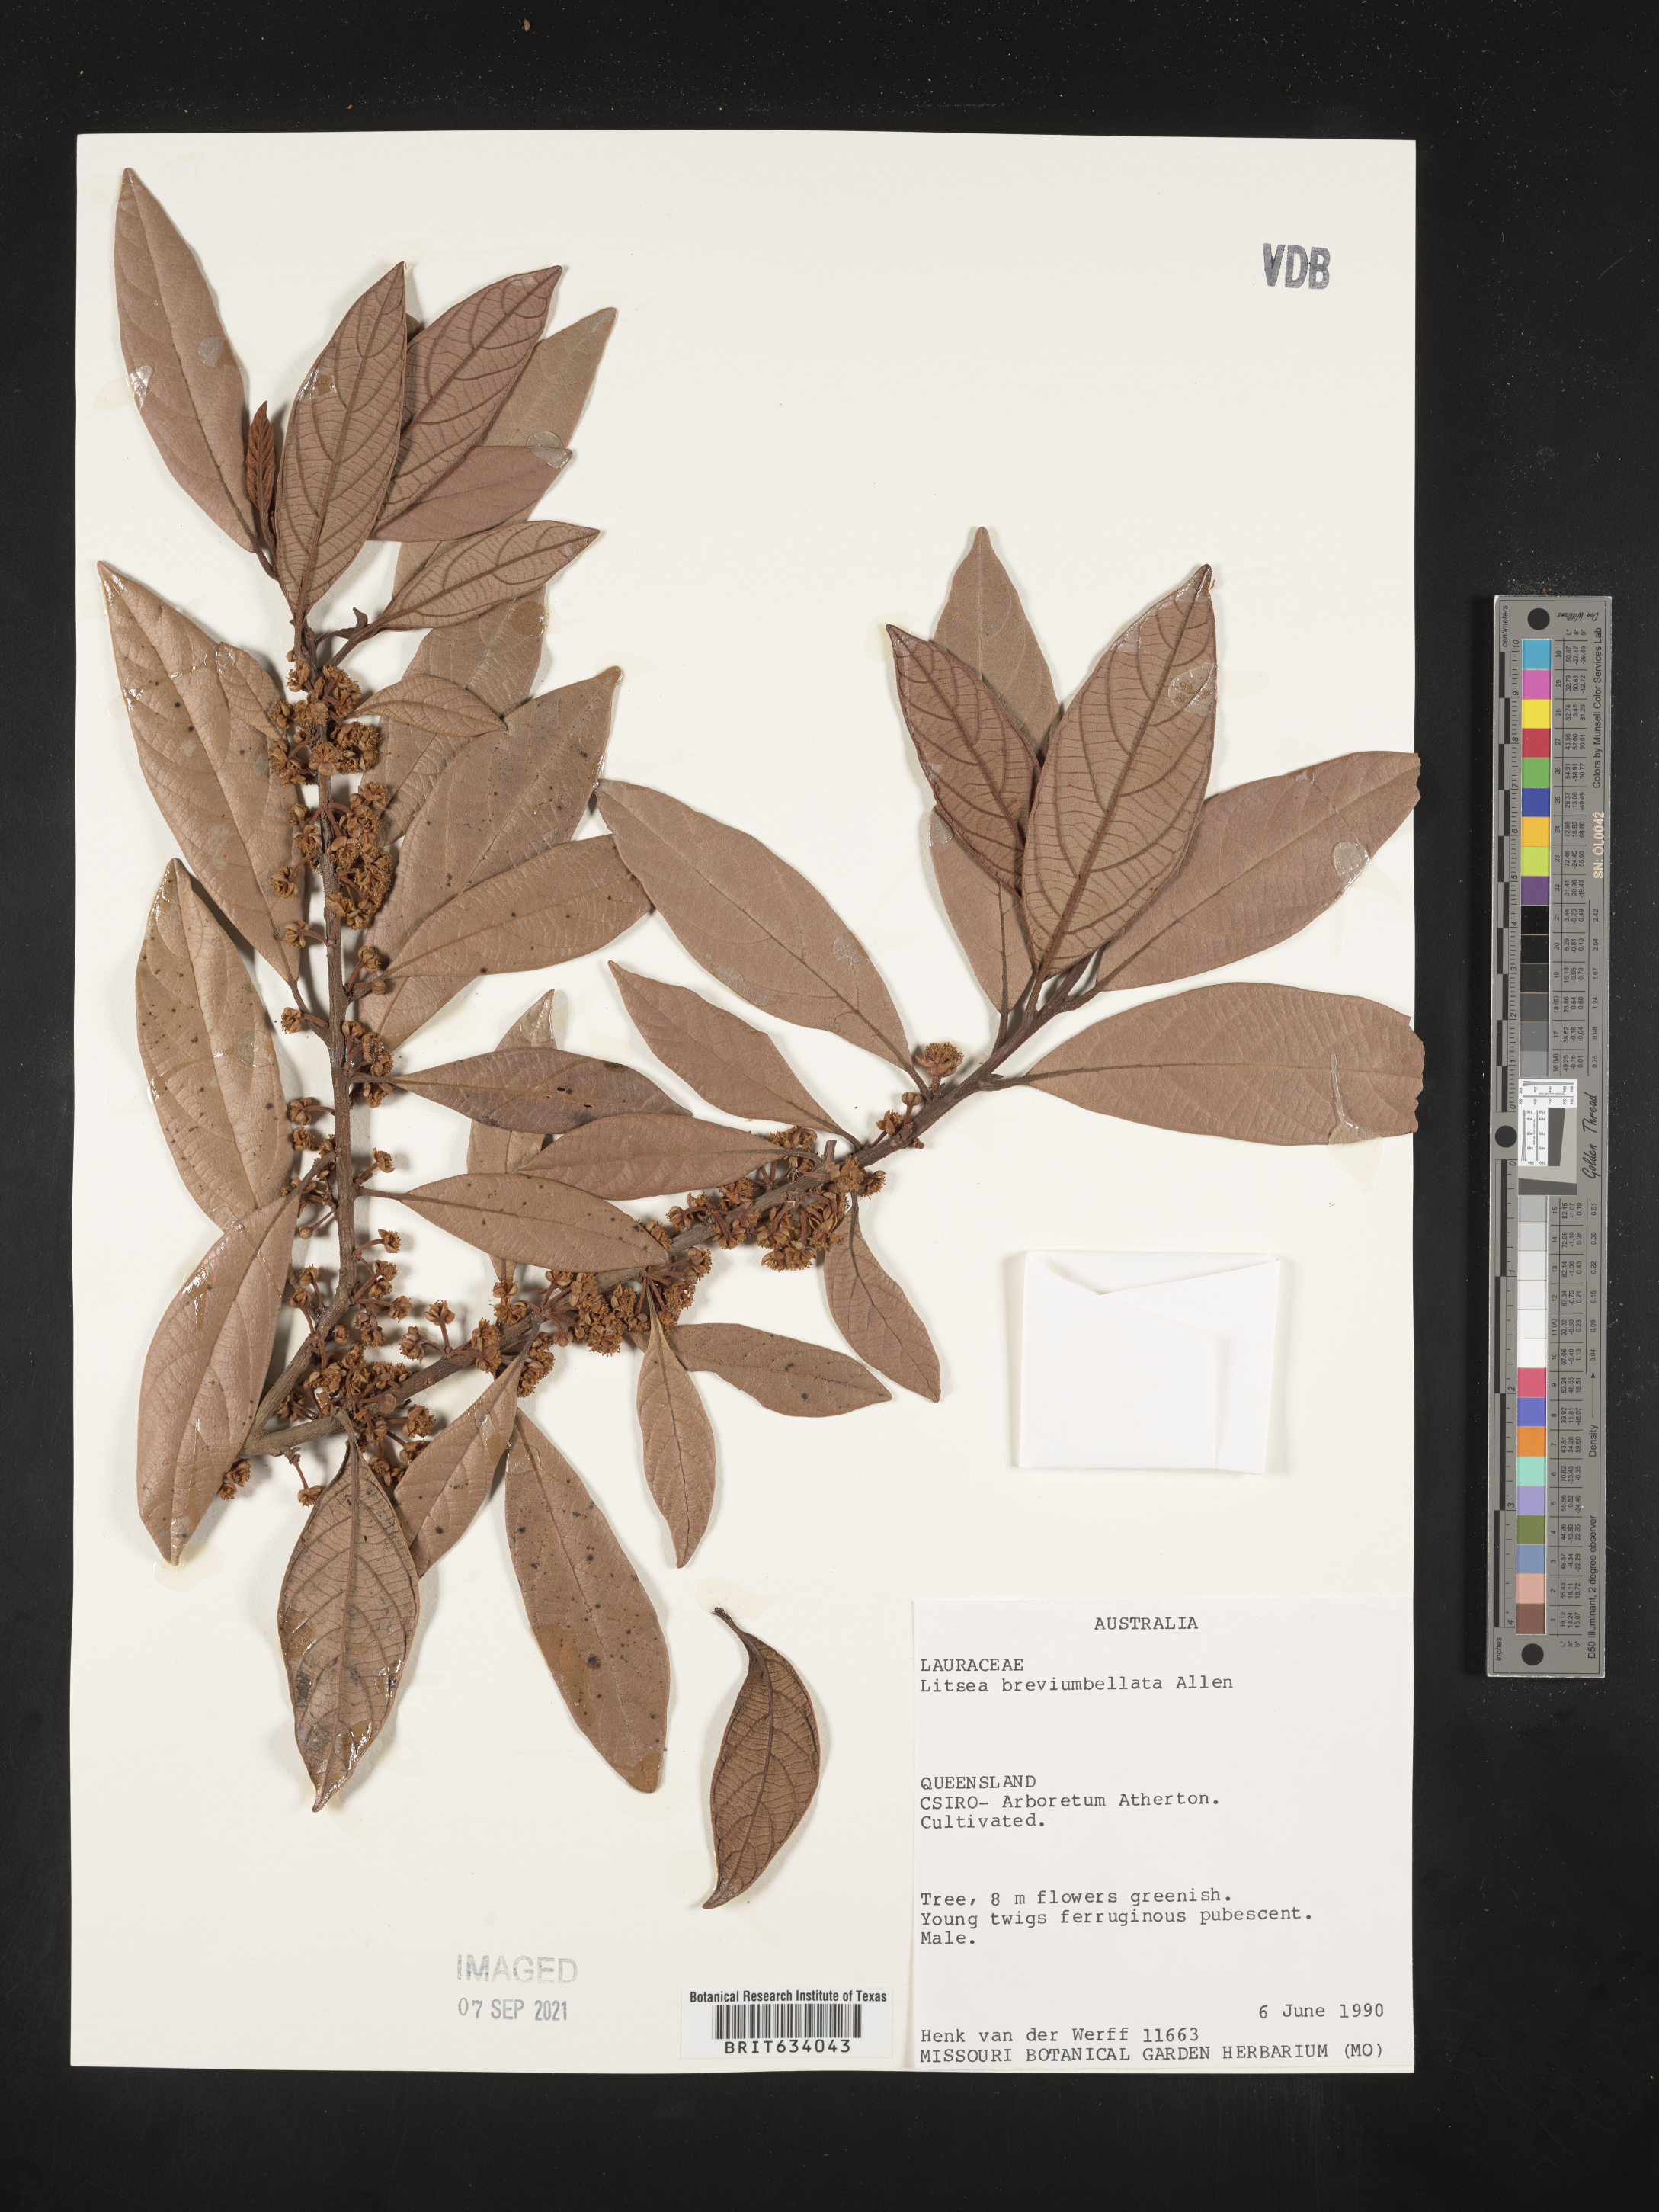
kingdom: Plantae
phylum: Tracheophyta
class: Magnoliopsida
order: Laurales
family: Lauraceae
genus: Litsea
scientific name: Litsea
